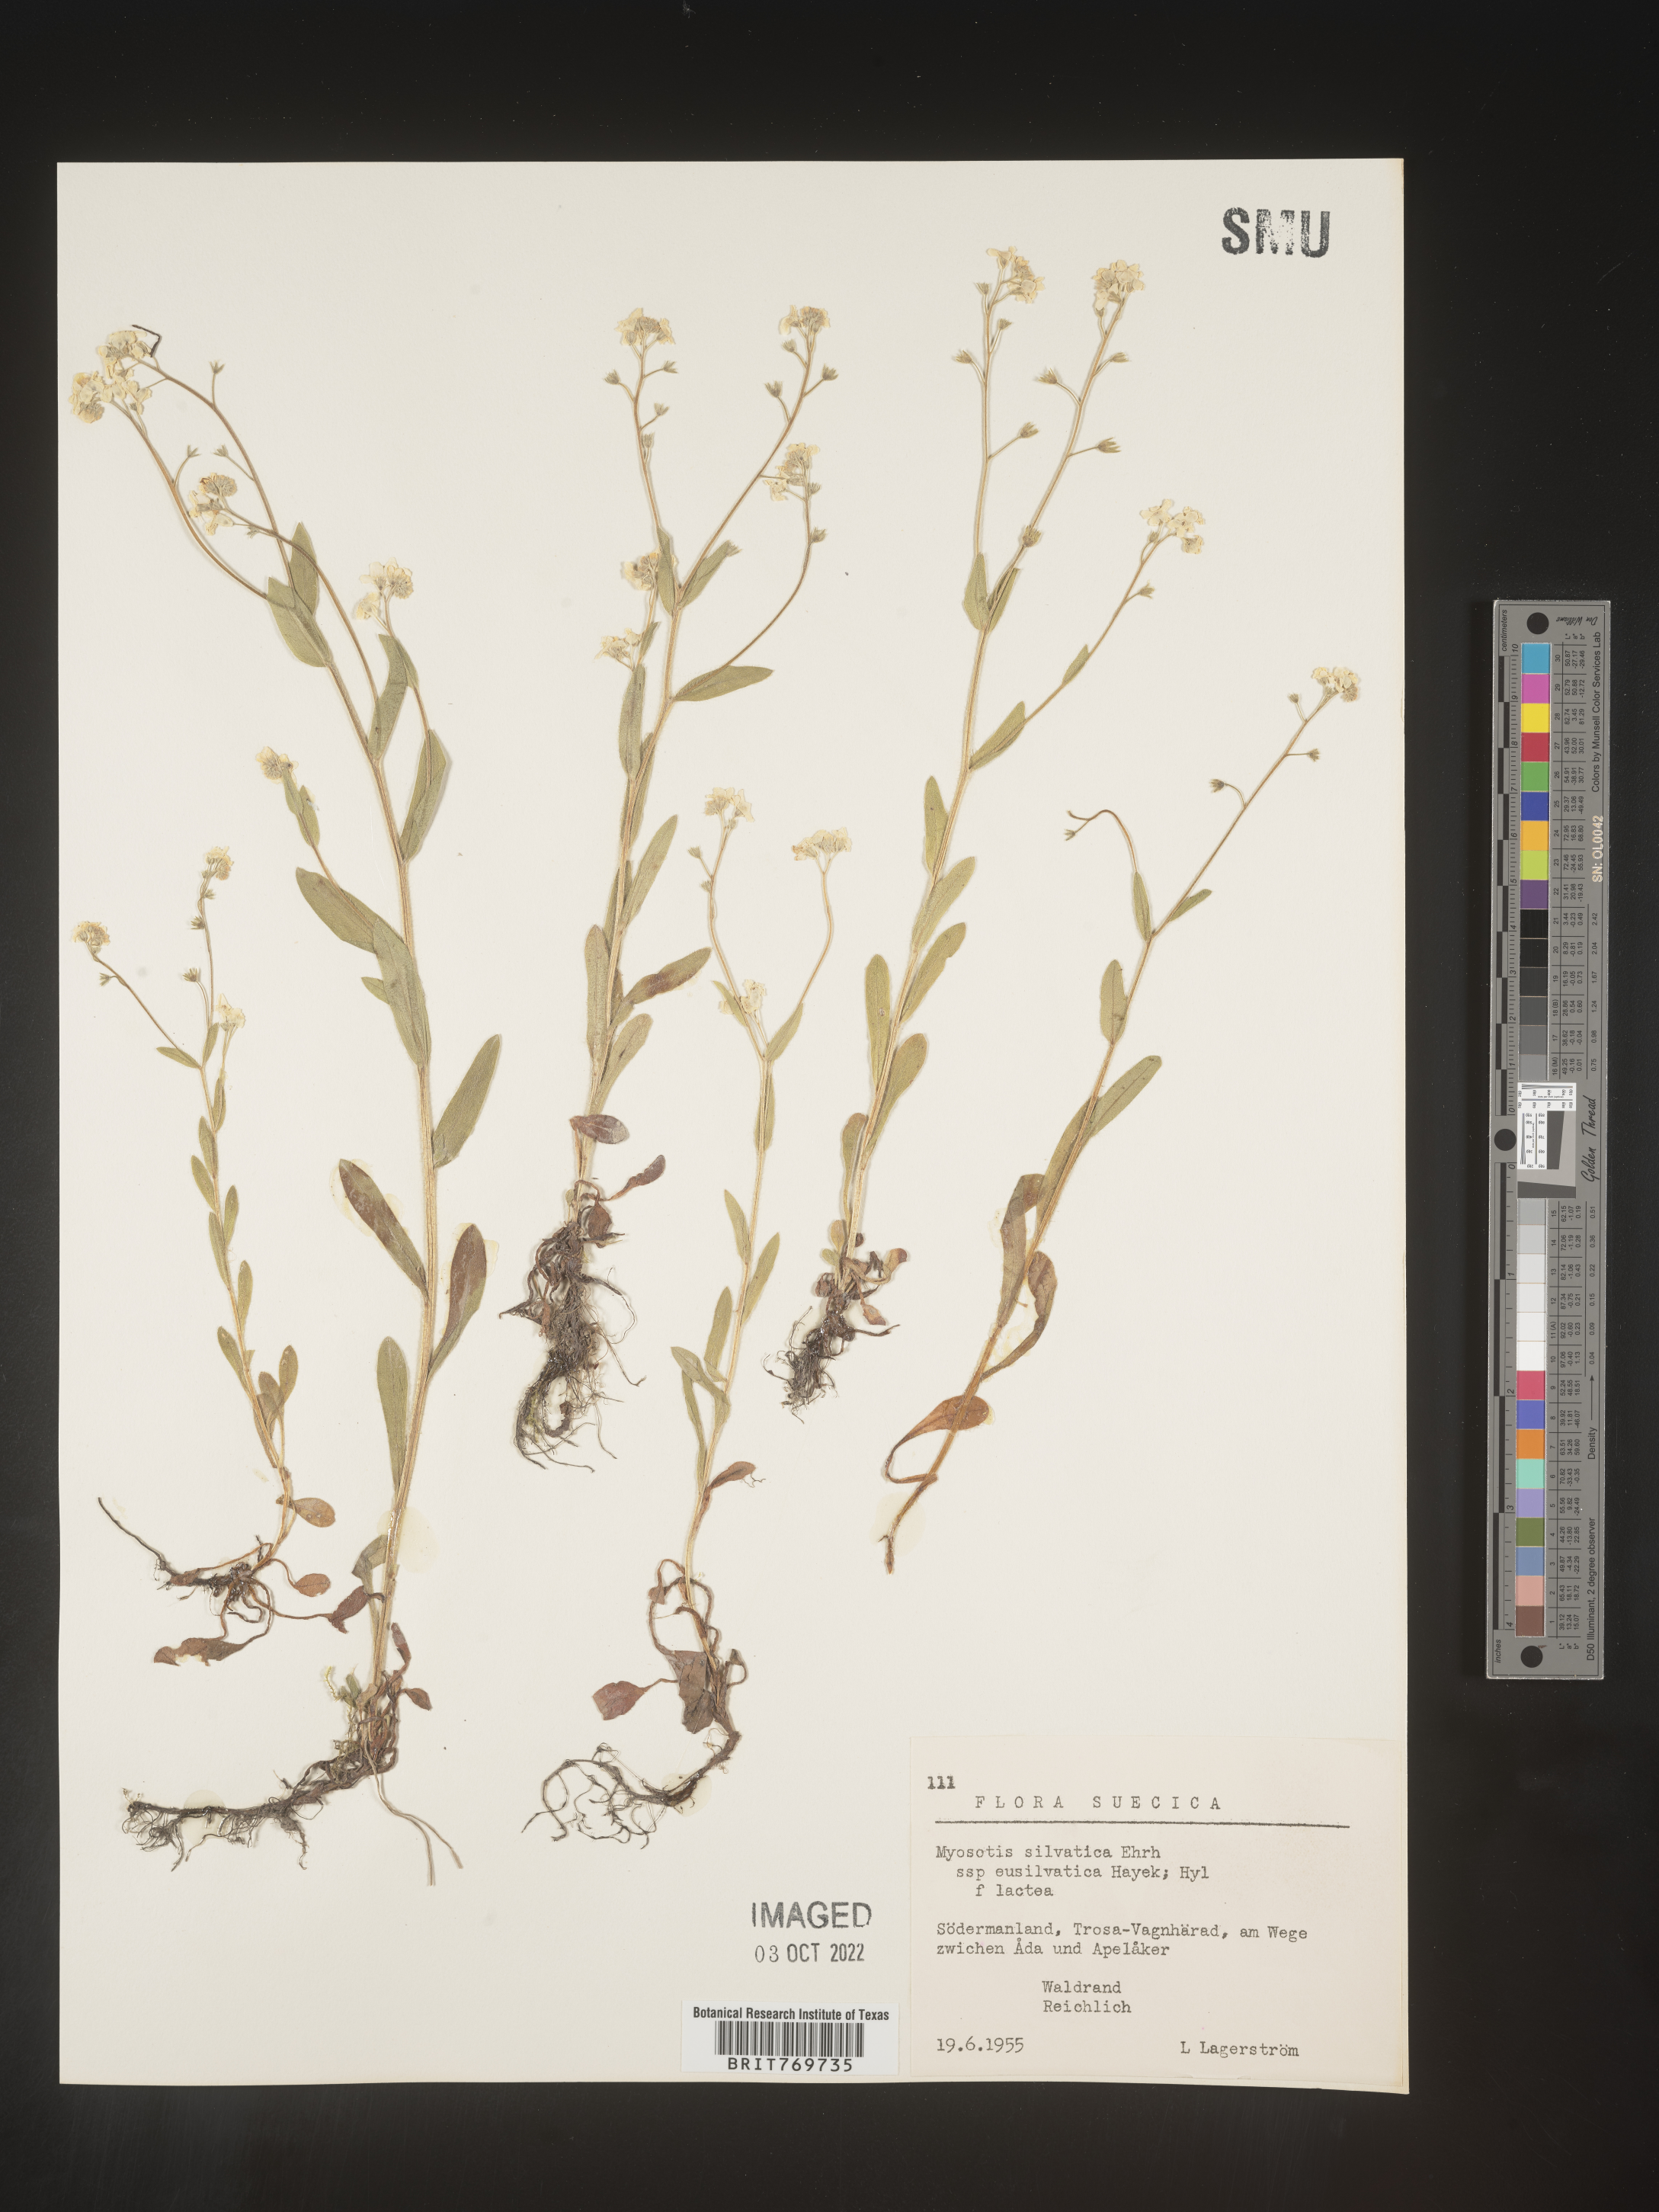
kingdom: Plantae
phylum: Tracheophyta
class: Magnoliopsida
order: Boraginales
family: Boraginaceae
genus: Myosotis
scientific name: Myosotis
